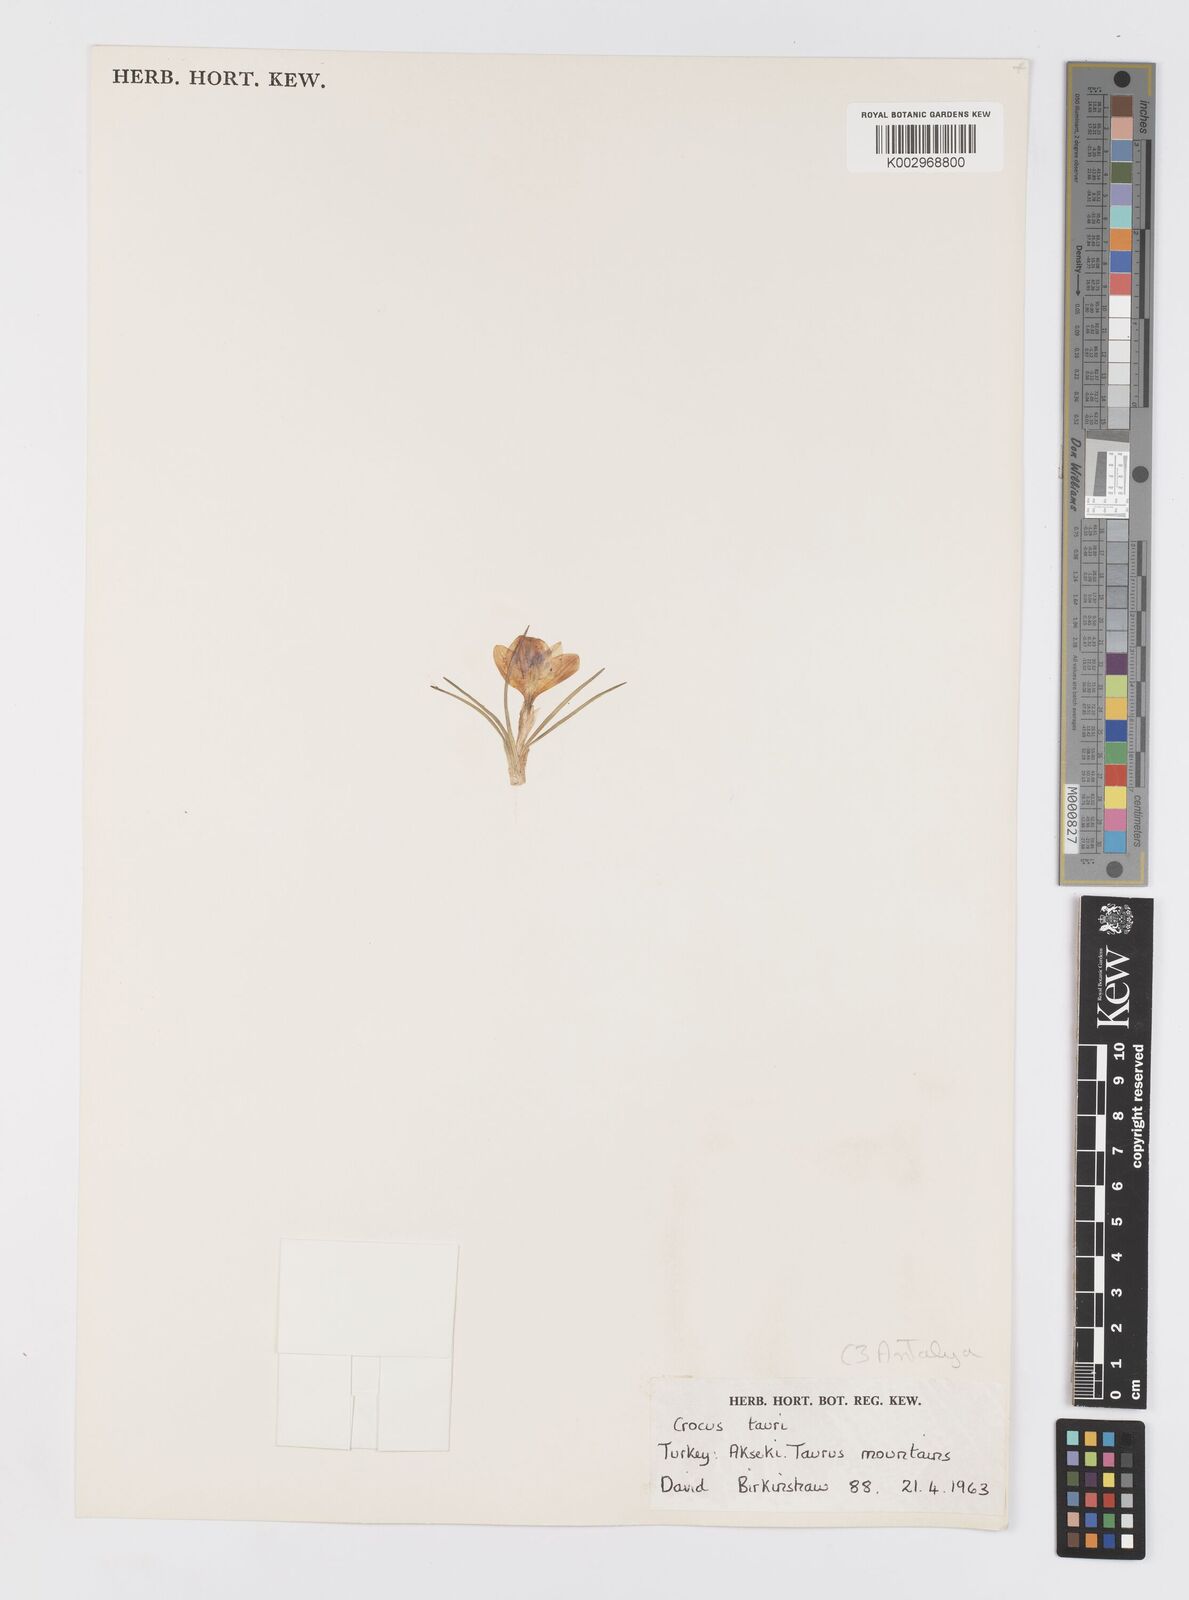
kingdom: Plantae
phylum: Tracheophyta
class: Liliopsida
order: Asparagales
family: Iridaceae
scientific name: Iridaceae
